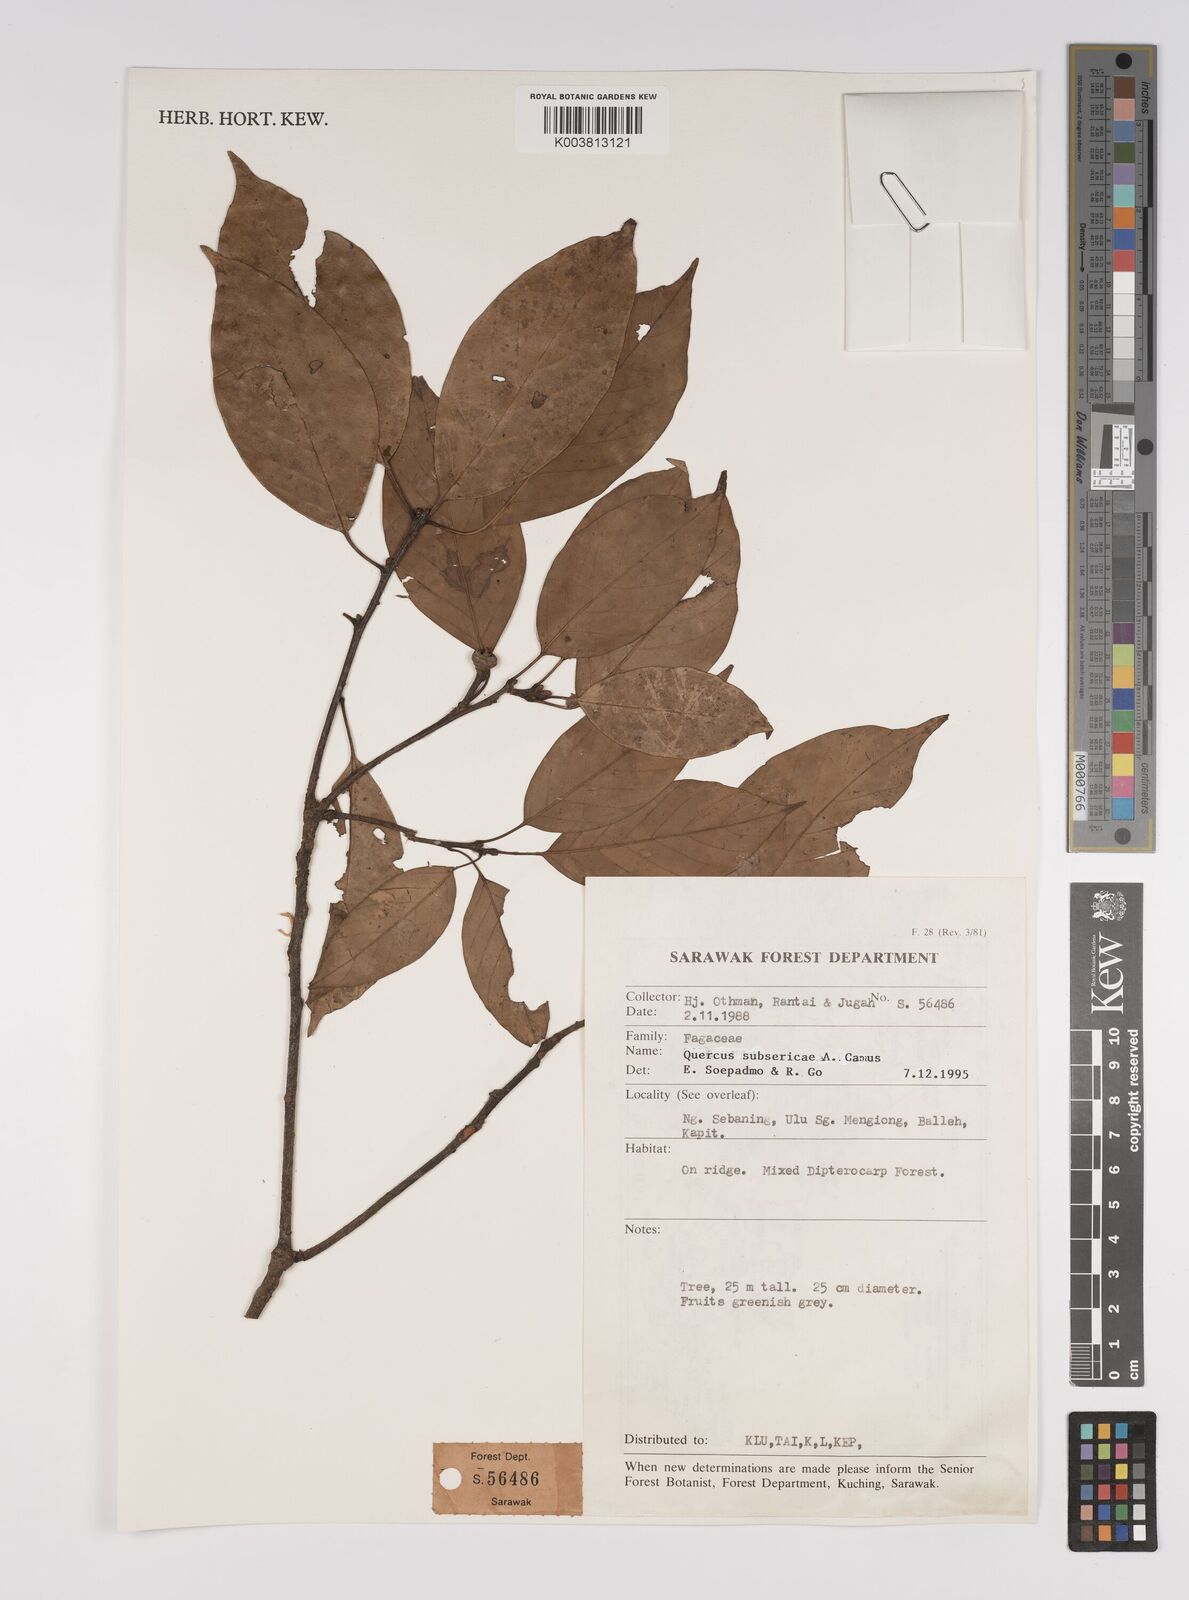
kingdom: Plantae
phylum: Tracheophyta
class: Magnoliopsida
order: Fagales
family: Fagaceae
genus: Quercus
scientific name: Quercus subsericea
